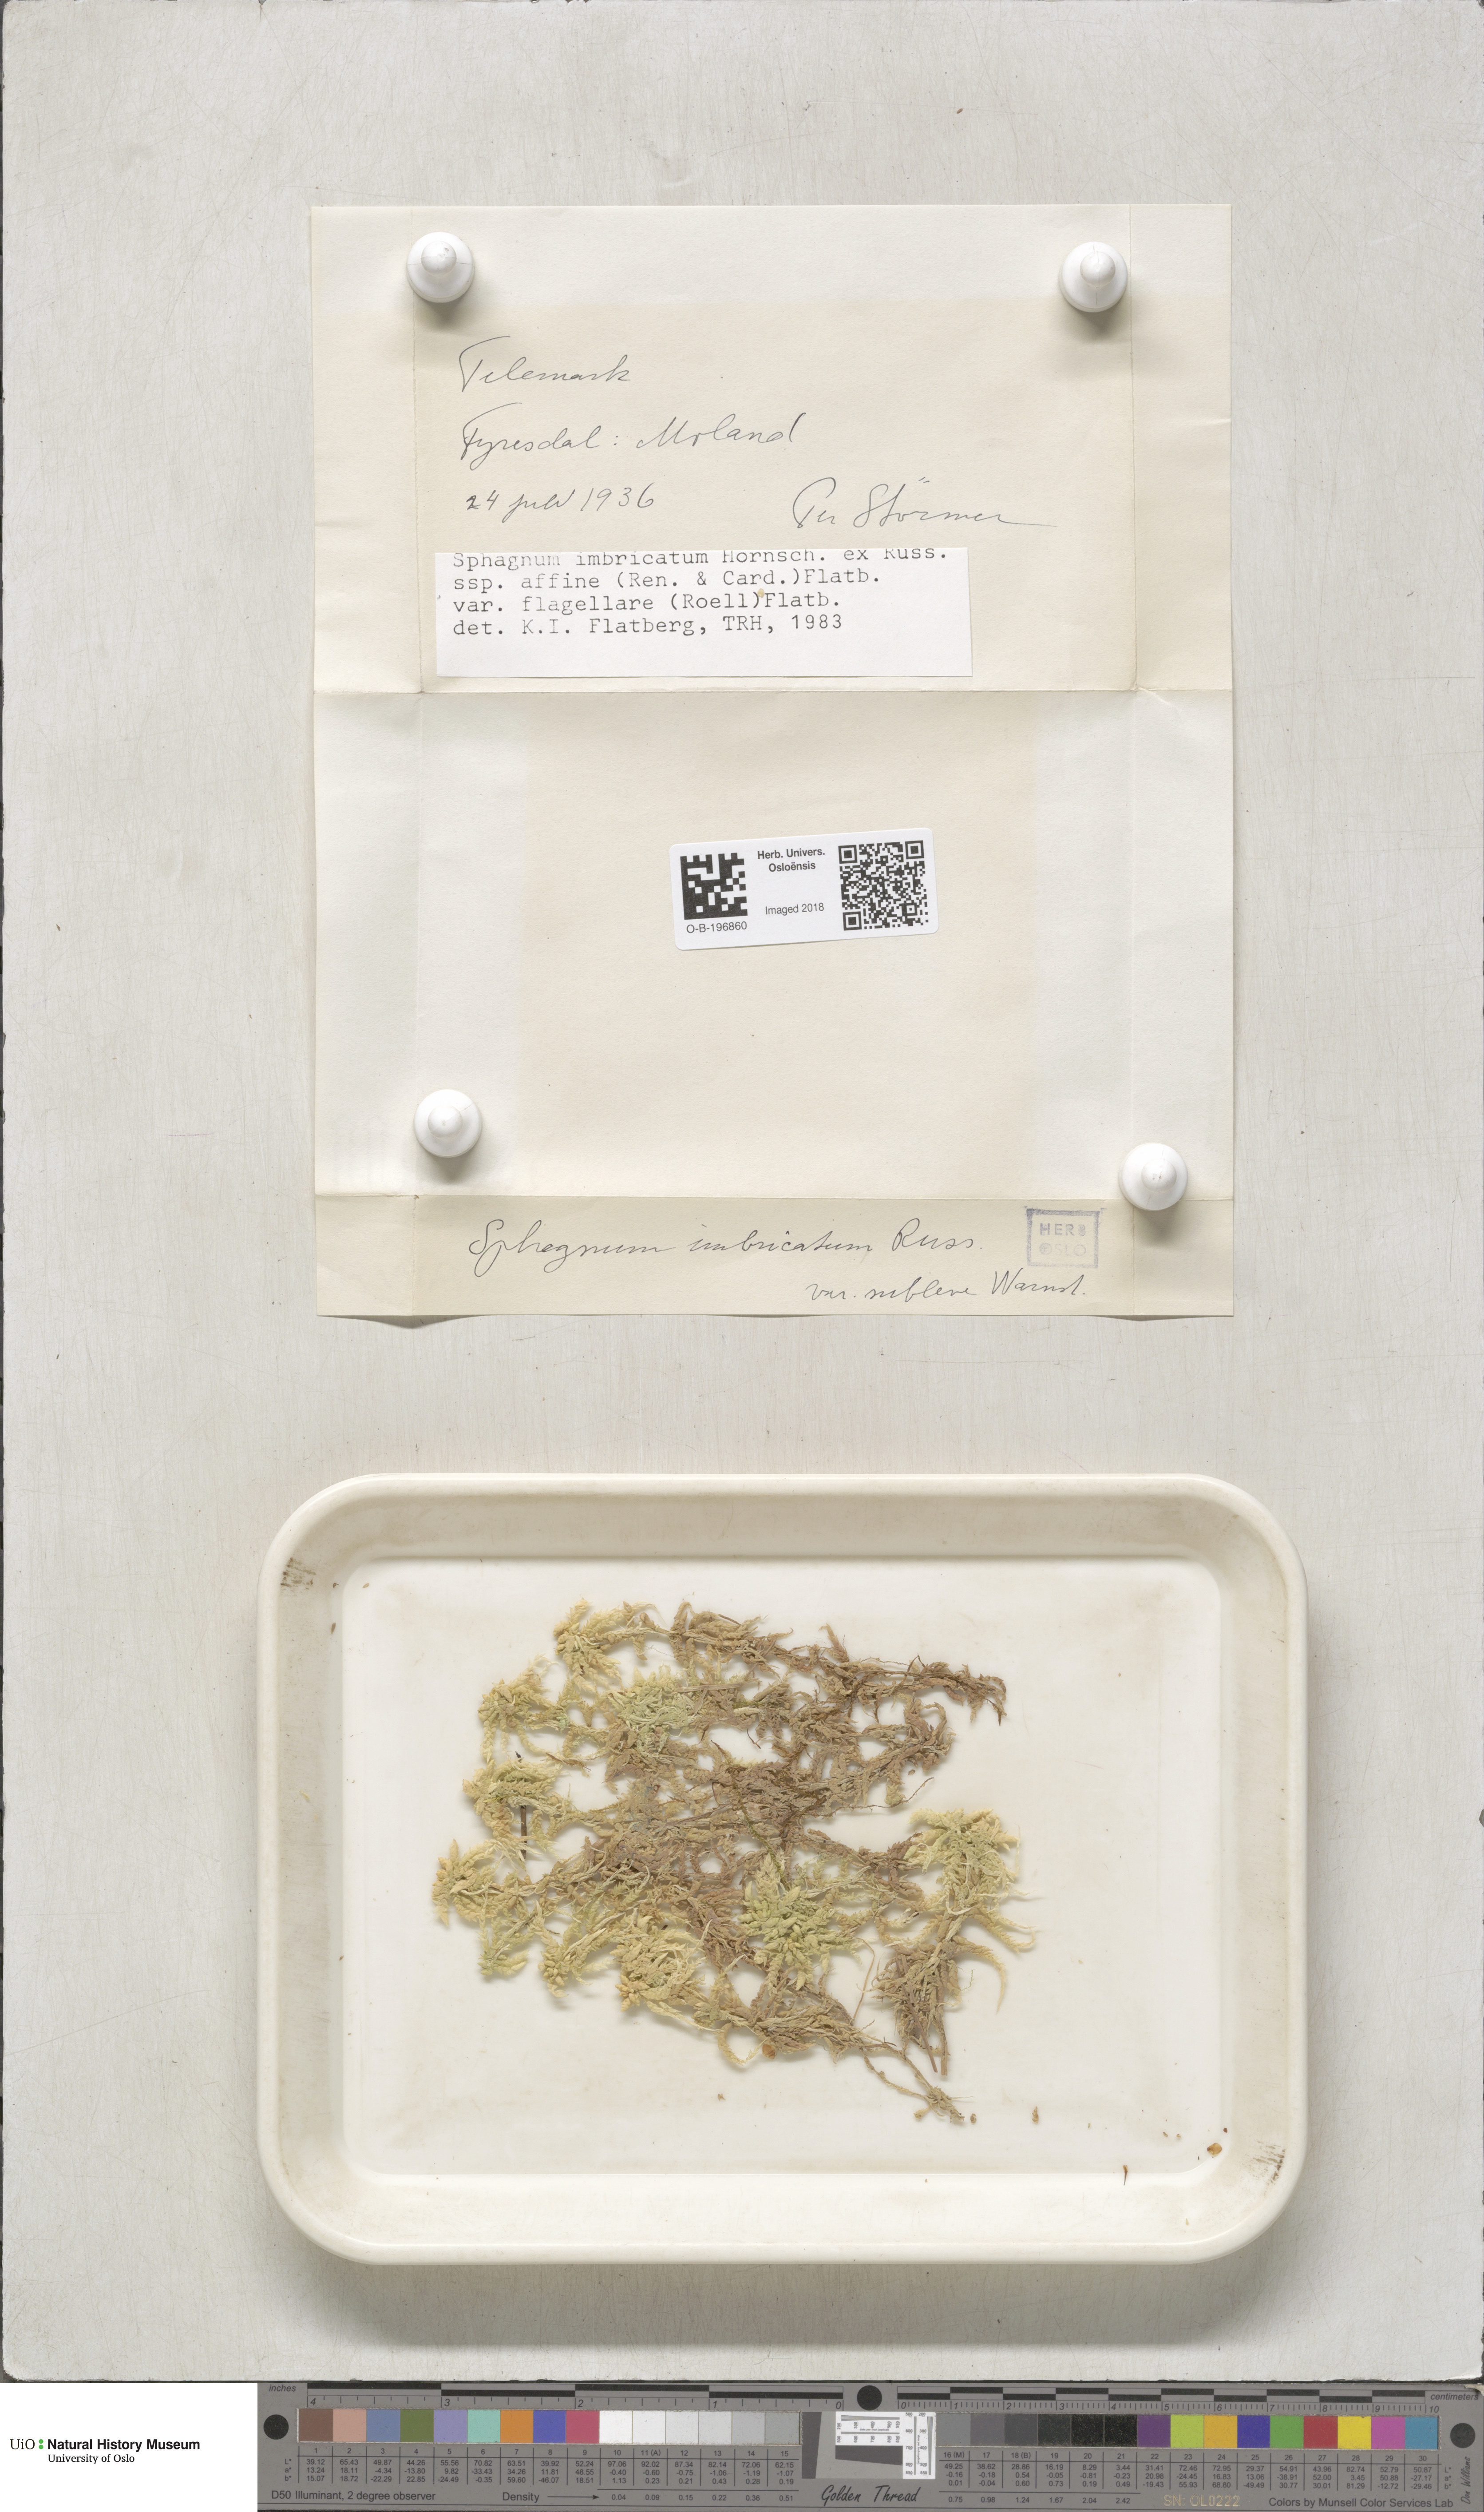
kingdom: Plantae
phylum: Bryophyta
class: Sphagnopsida
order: Sphagnales
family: Sphagnaceae
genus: Sphagnum
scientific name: Sphagnum affine
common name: Imbricate peat moss
